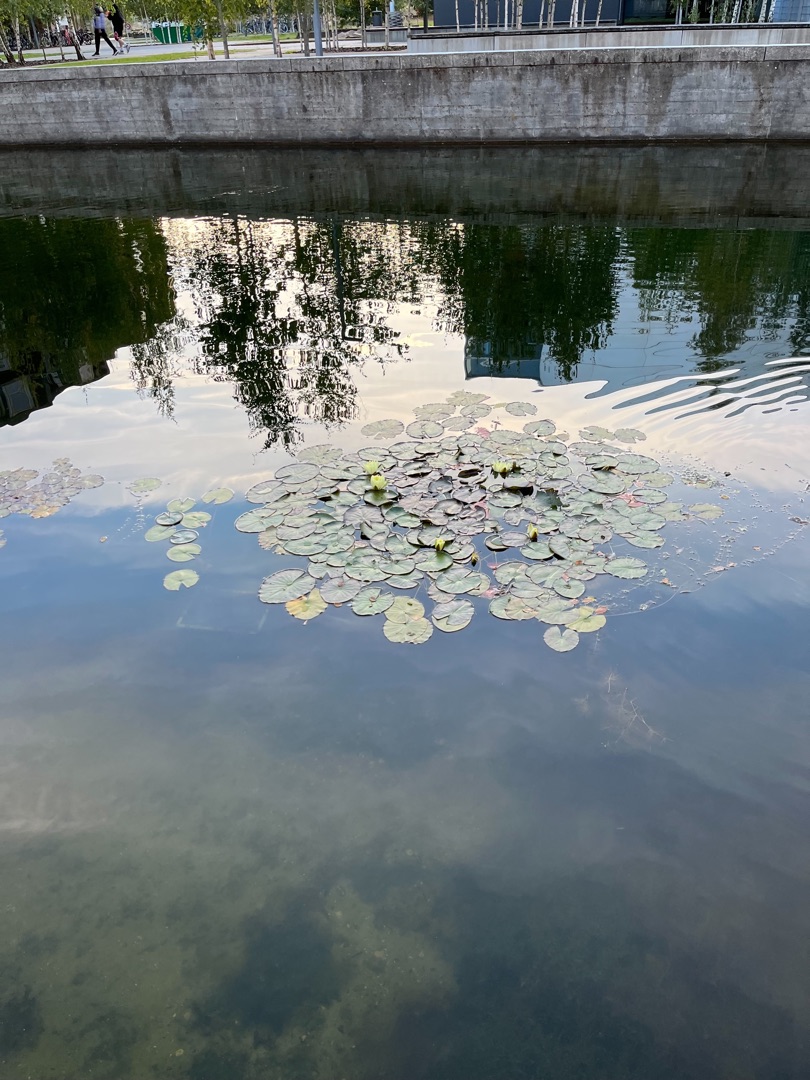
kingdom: Plantae
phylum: Tracheophyta
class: Magnoliopsida
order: Nymphaeales
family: Nymphaeaceae
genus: Nymphaea
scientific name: Nymphaea alba
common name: Hvid åkande
